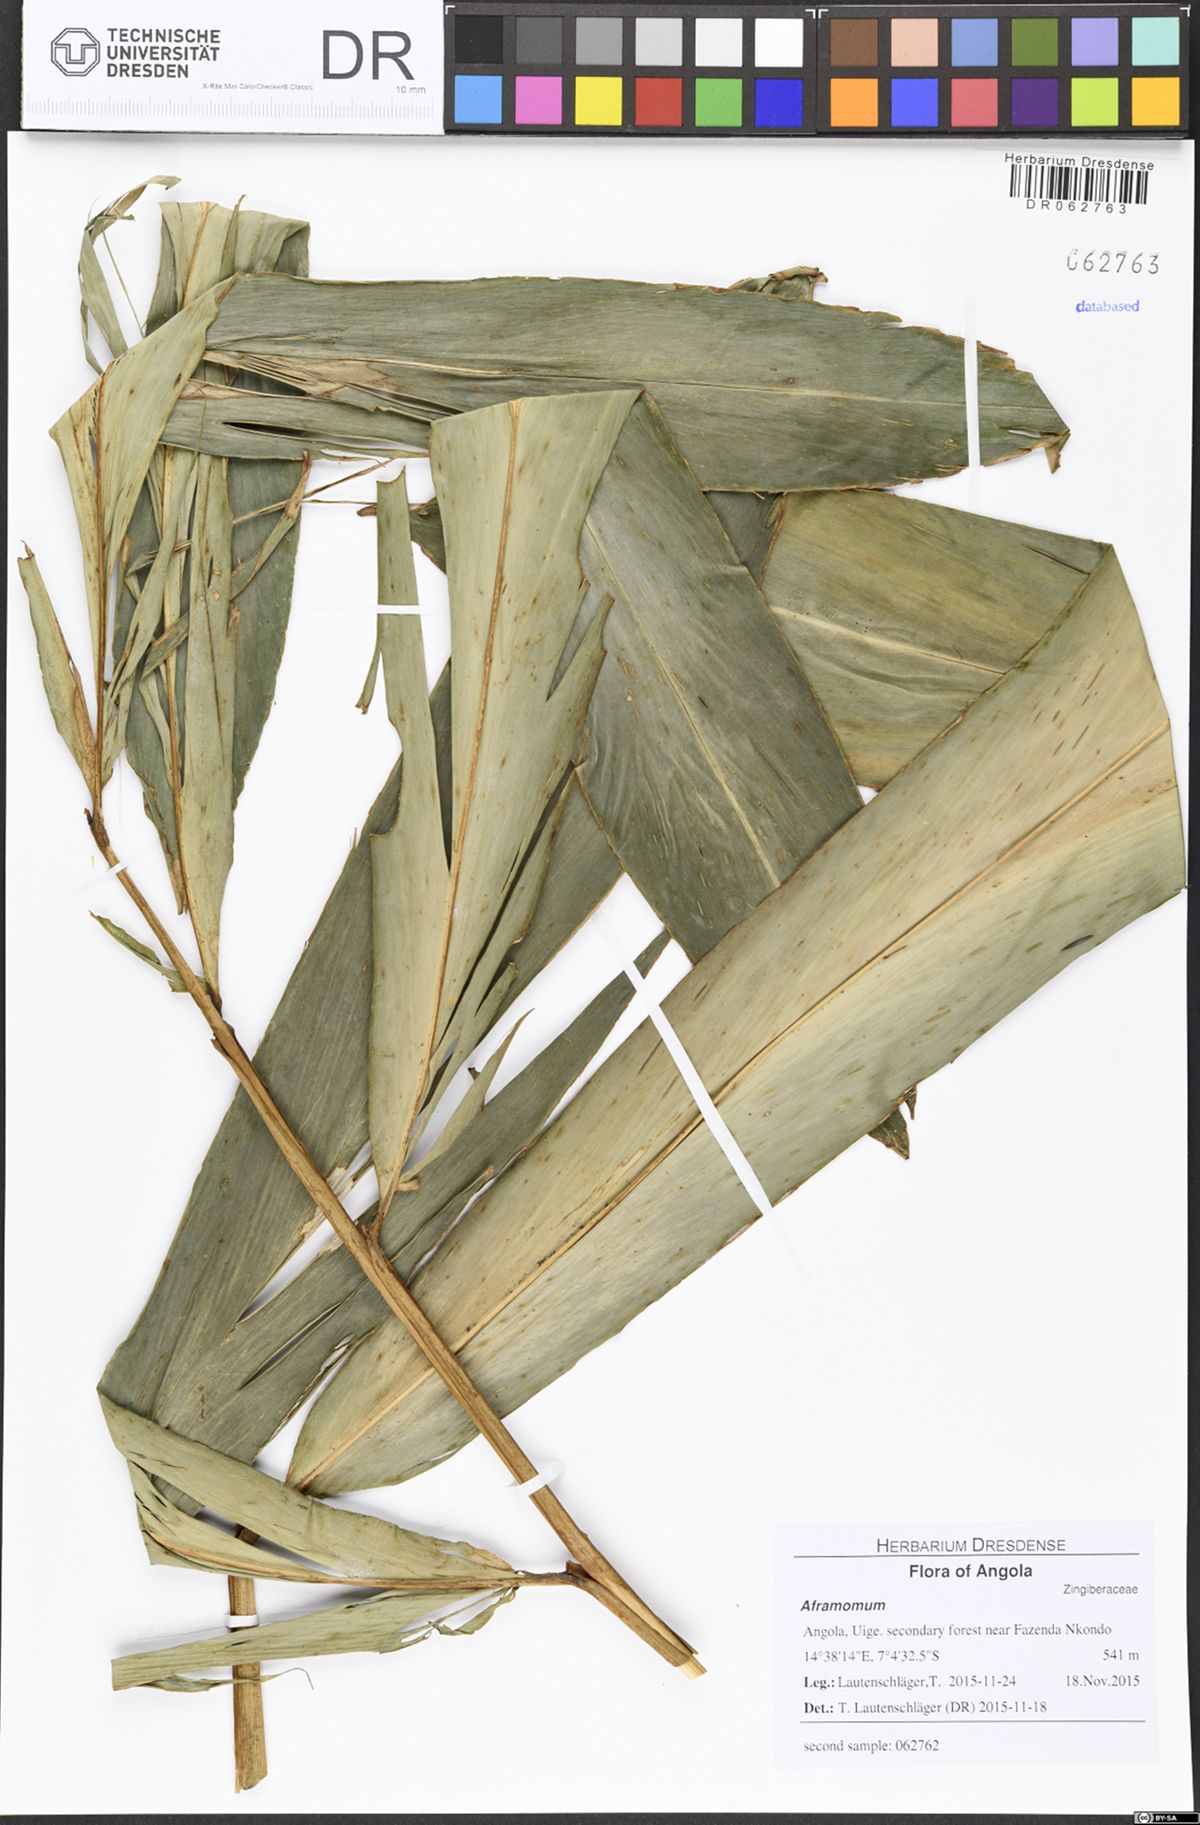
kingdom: Plantae
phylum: Tracheophyta
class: Liliopsida
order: Zingiberales
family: Zingiberaceae
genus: Aframomum
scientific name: Aframomum giganteum
